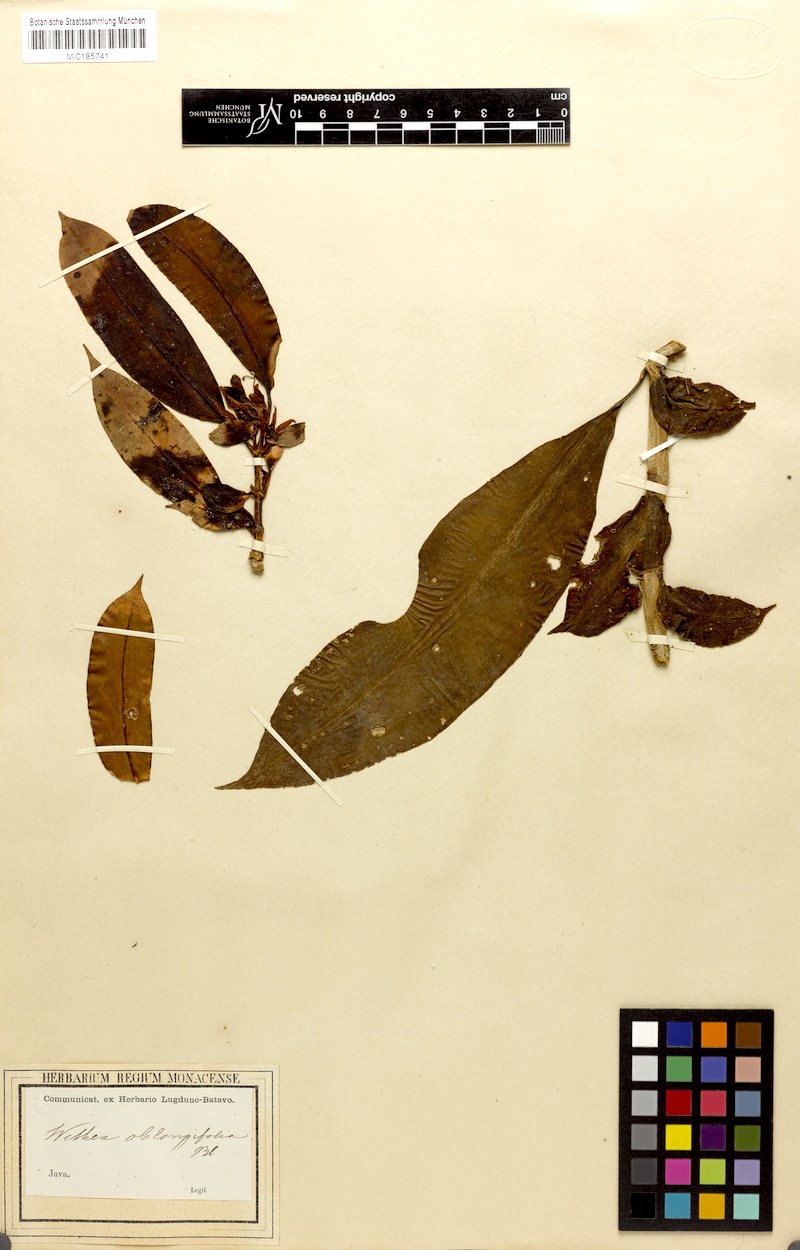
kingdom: Plantae
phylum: Tracheophyta
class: Magnoliopsida
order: Lamiales
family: Gesneriaceae
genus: Cyrtandra
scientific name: Cyrtandra oblongifolia
